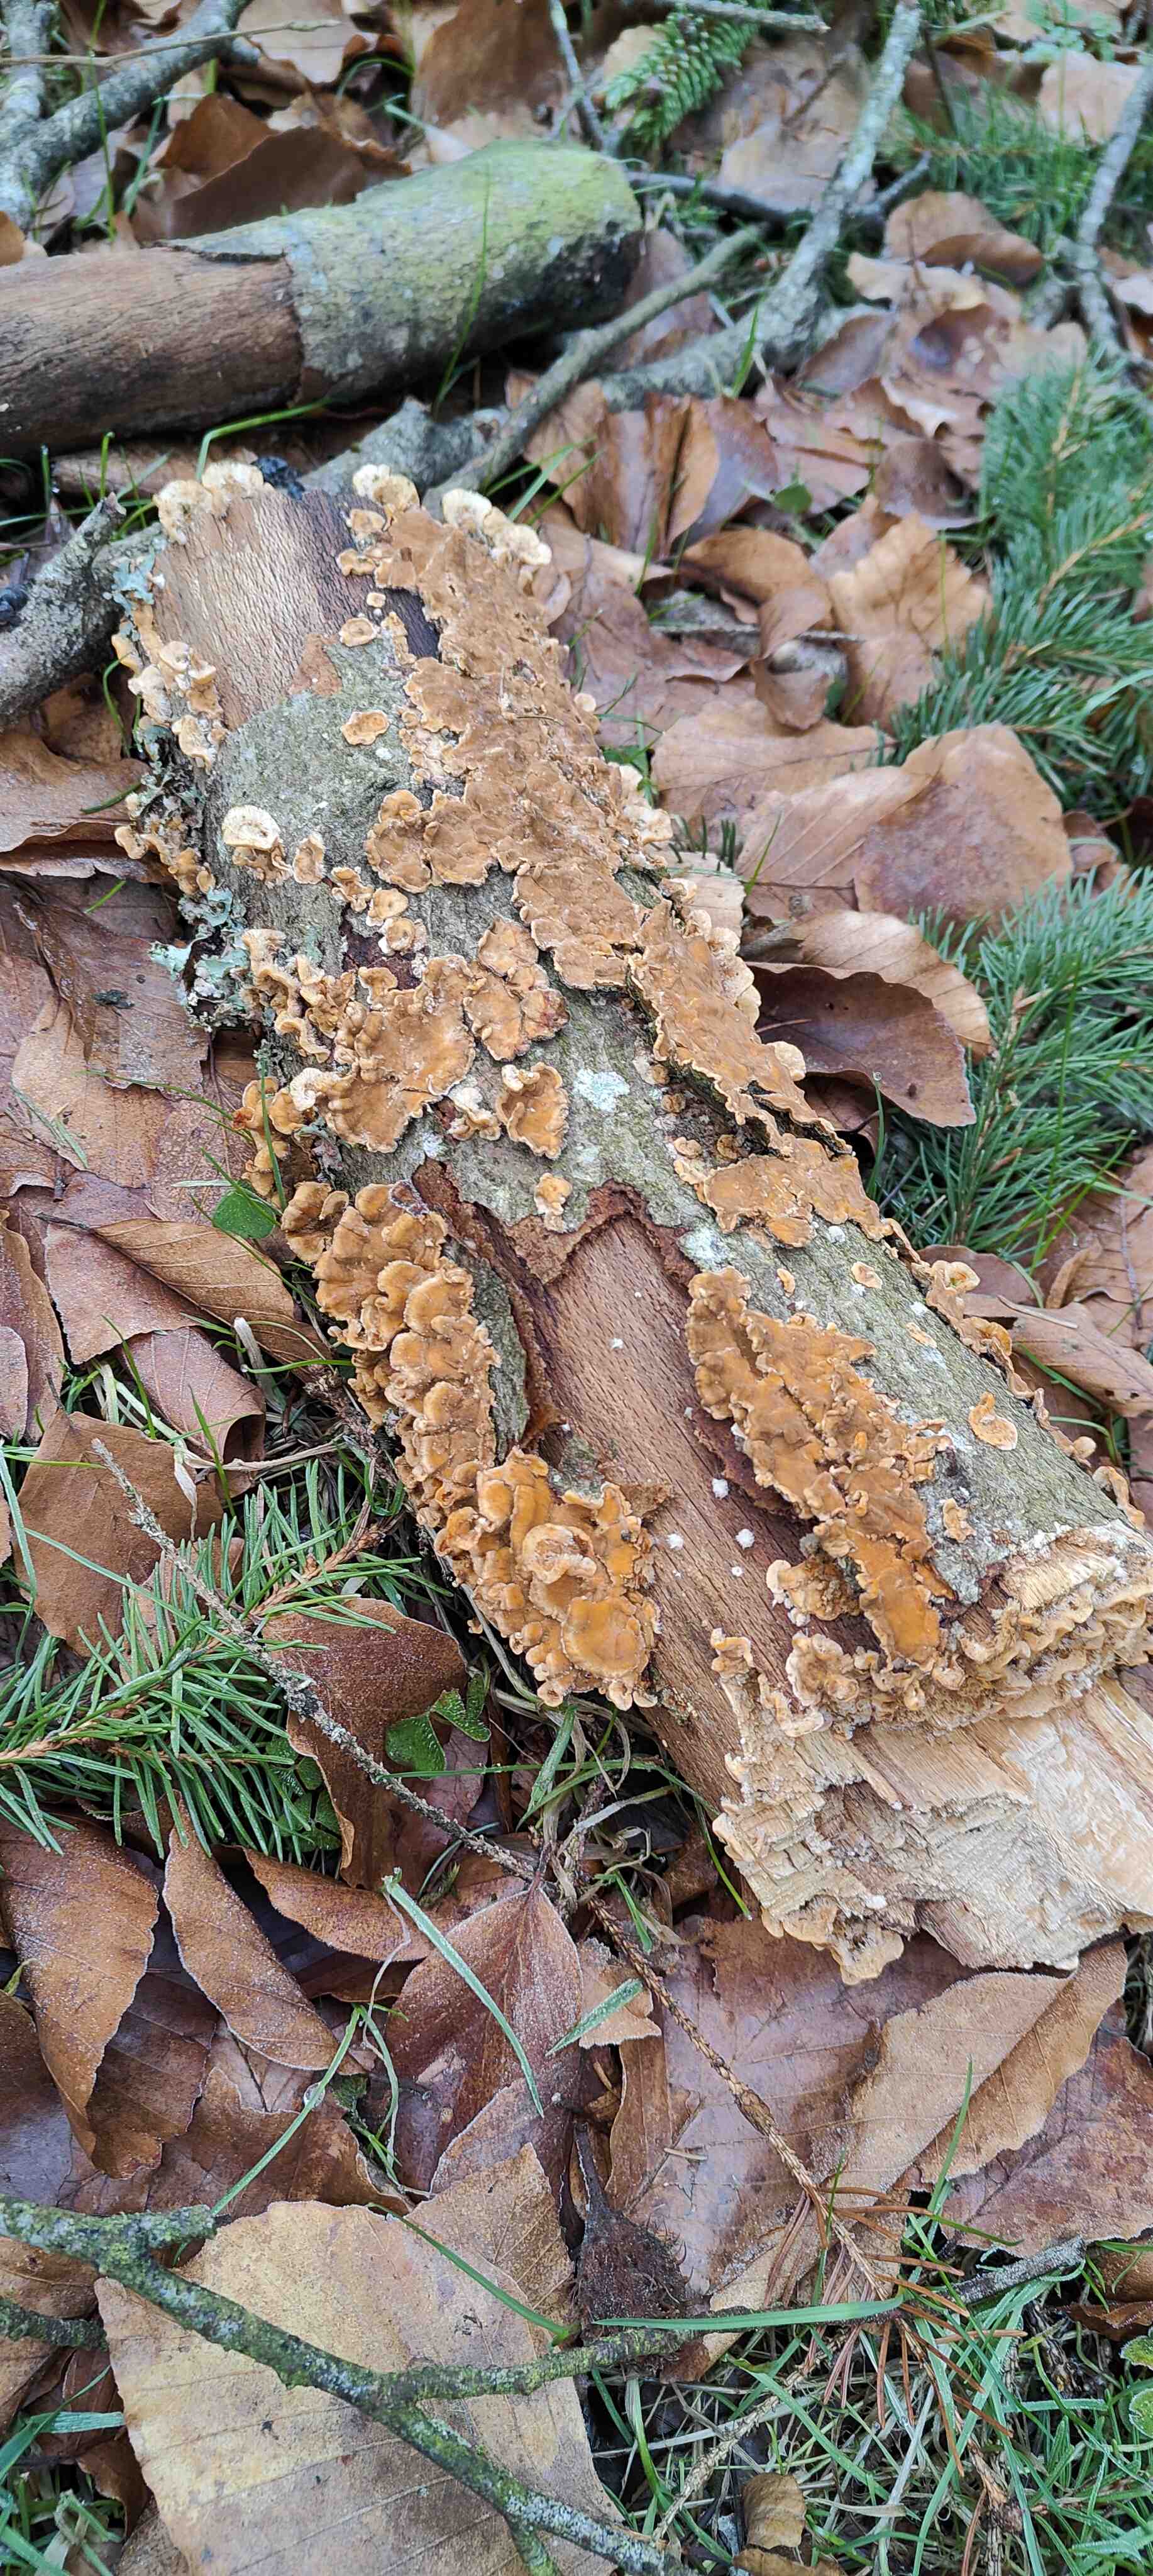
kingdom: Fungi
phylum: Basidiomycota
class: Agaricomycetes
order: Russulales
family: Stereaceae
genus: Stereum
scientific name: Stereum hirsutum
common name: håret lædersvamp
